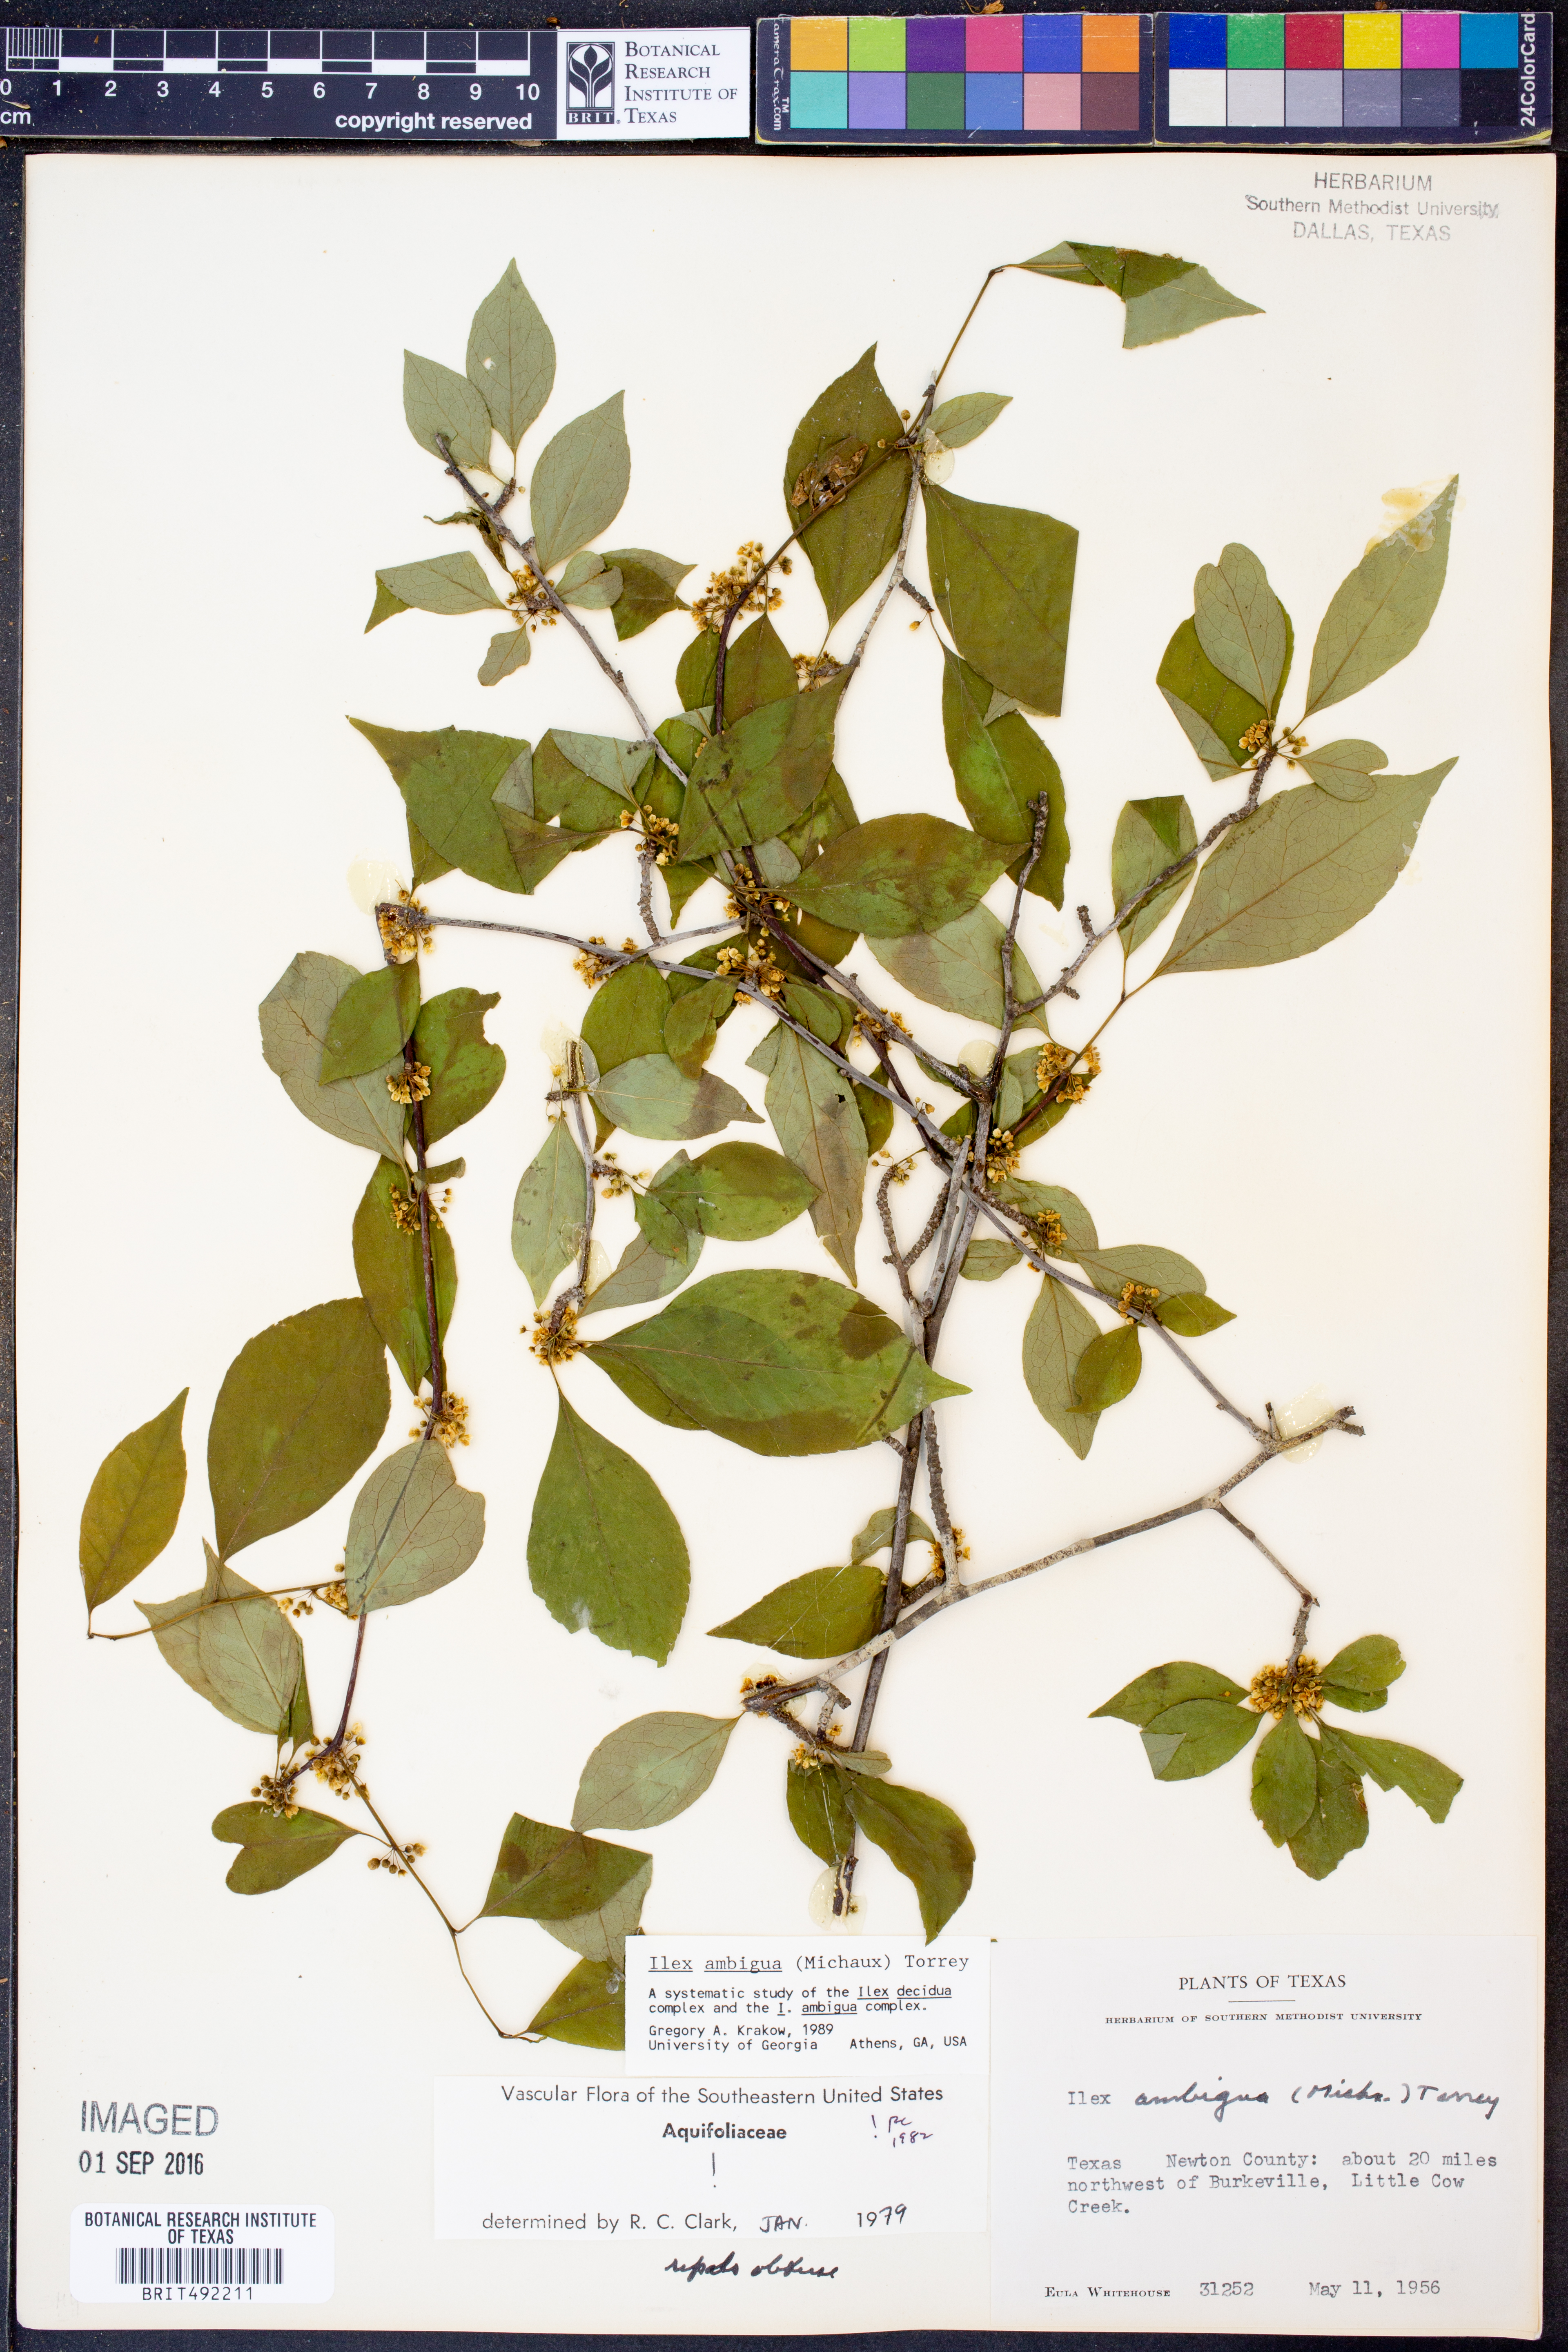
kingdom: Plantae
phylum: Tracheophyta
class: Magnoliopsida
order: Aquifoliales
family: Aquifoliaceae
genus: Ilex
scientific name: Ilex ambigua
